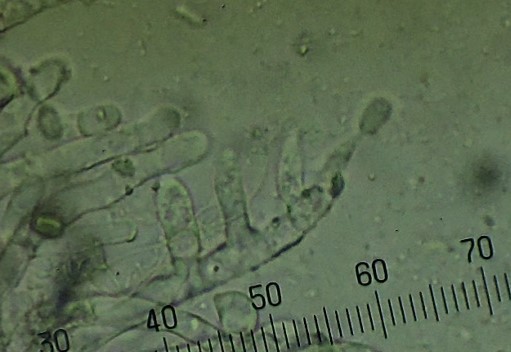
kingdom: Fungi
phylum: Basidiomycota
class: Pucciniomycetes
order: Helicobasidiales
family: Helicobasidiaceae
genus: Helicobasidium
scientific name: Helicobasidium purpureum
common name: purpur-bispebævrehinde
